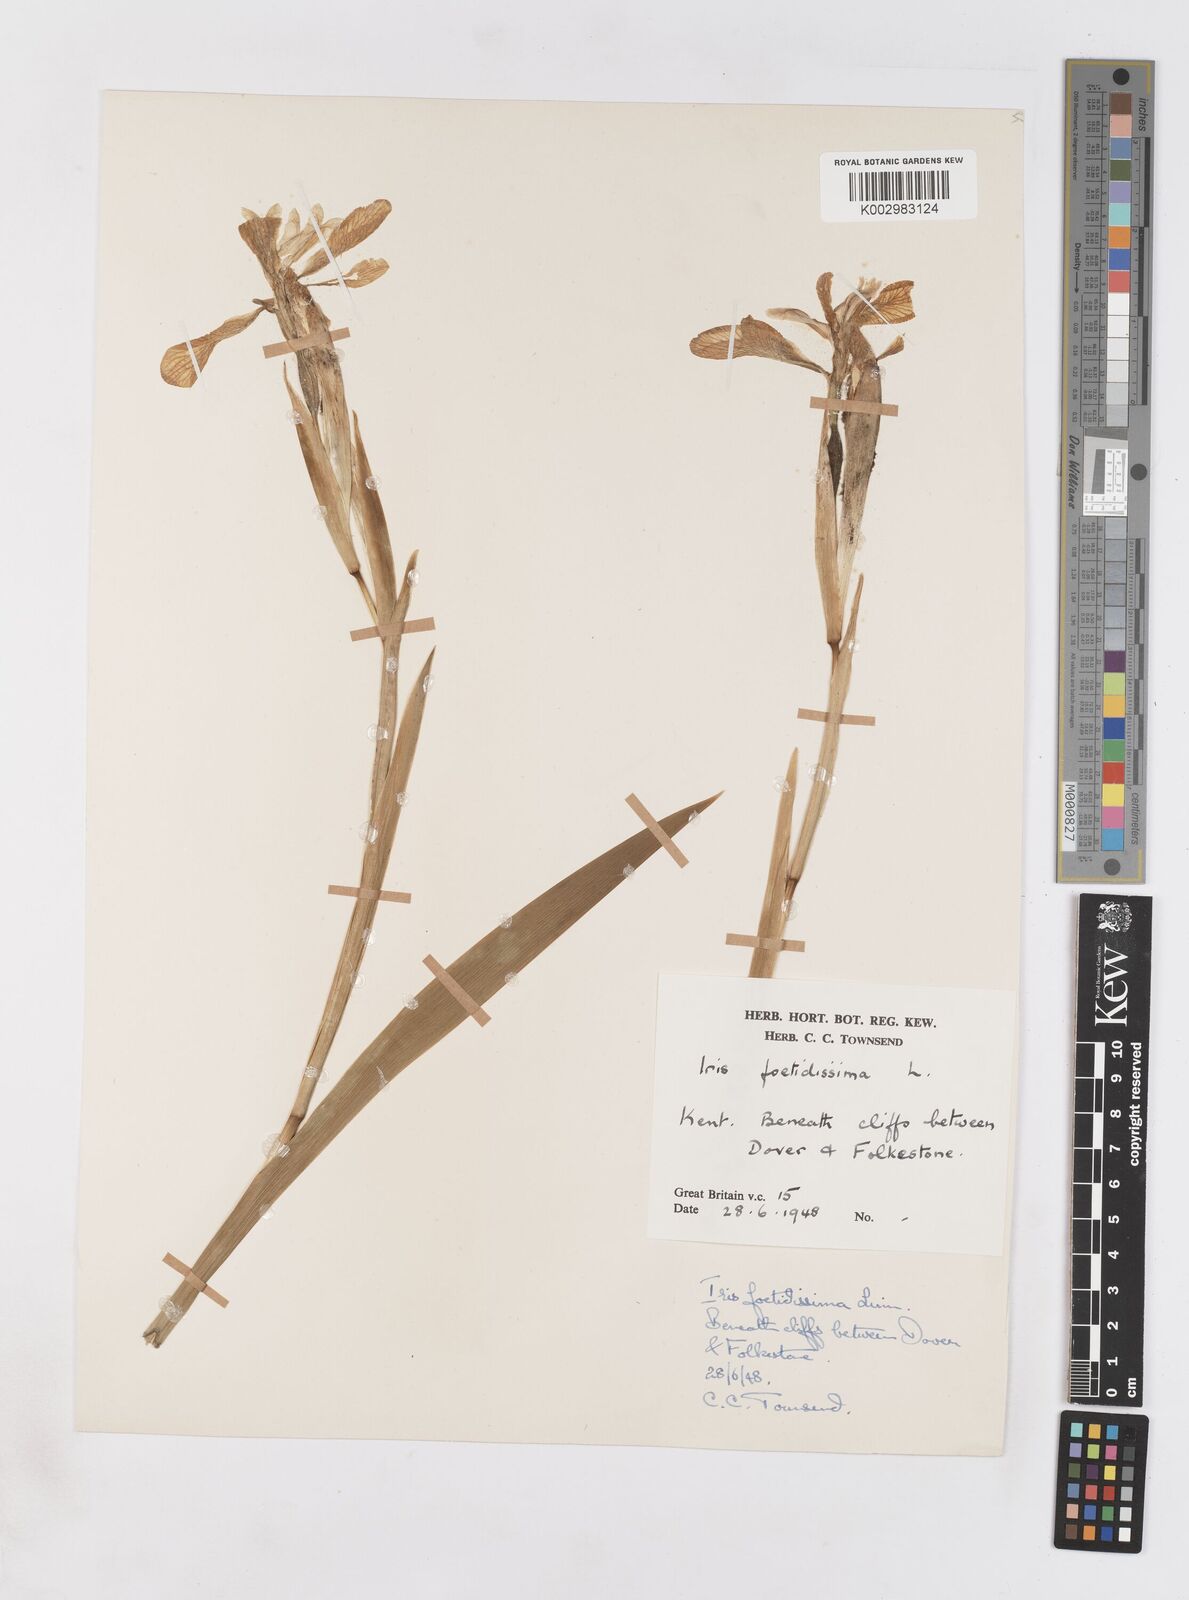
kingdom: Plantae
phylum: Tracheophyta
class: Liliopsida
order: Asparagales
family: Iridaceae
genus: Iris
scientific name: Iris foetidissima
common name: Stinking iris
